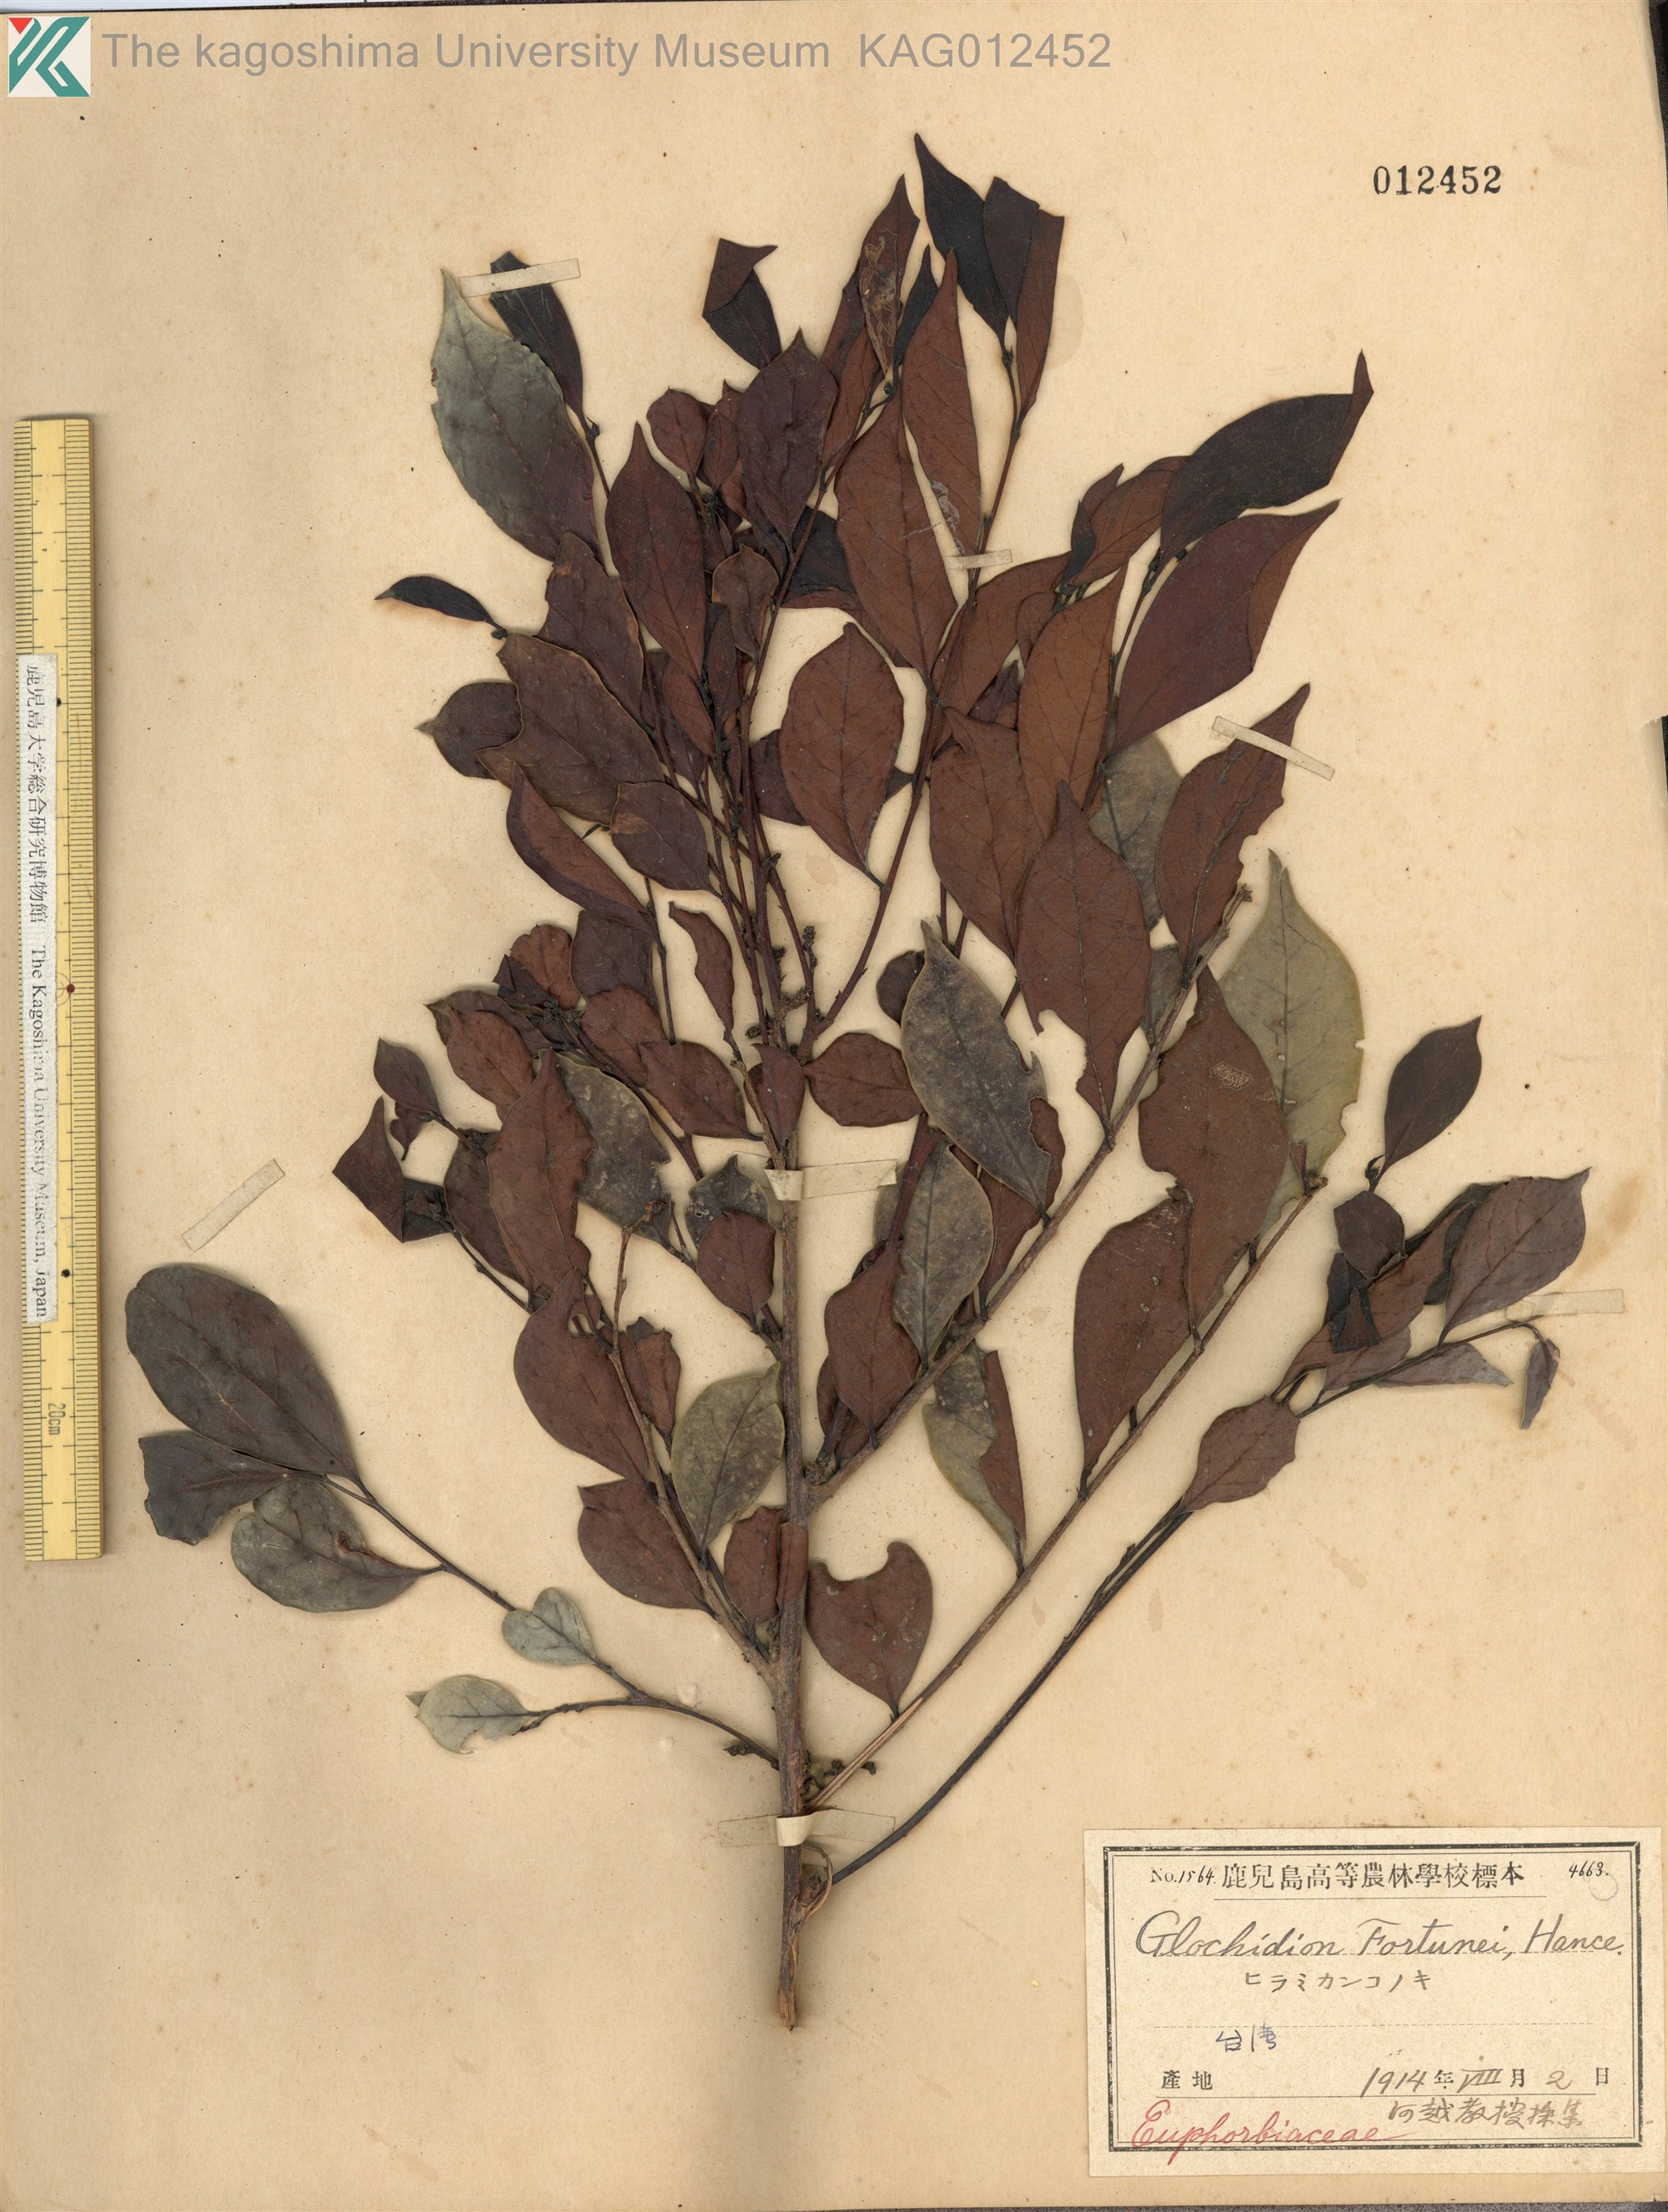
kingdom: Plantae
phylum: Tracheophyta
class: Magnoliopsida
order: Malpighiales
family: Phyllanthaceae
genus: Glochidion
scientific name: Glochidion rubrum
